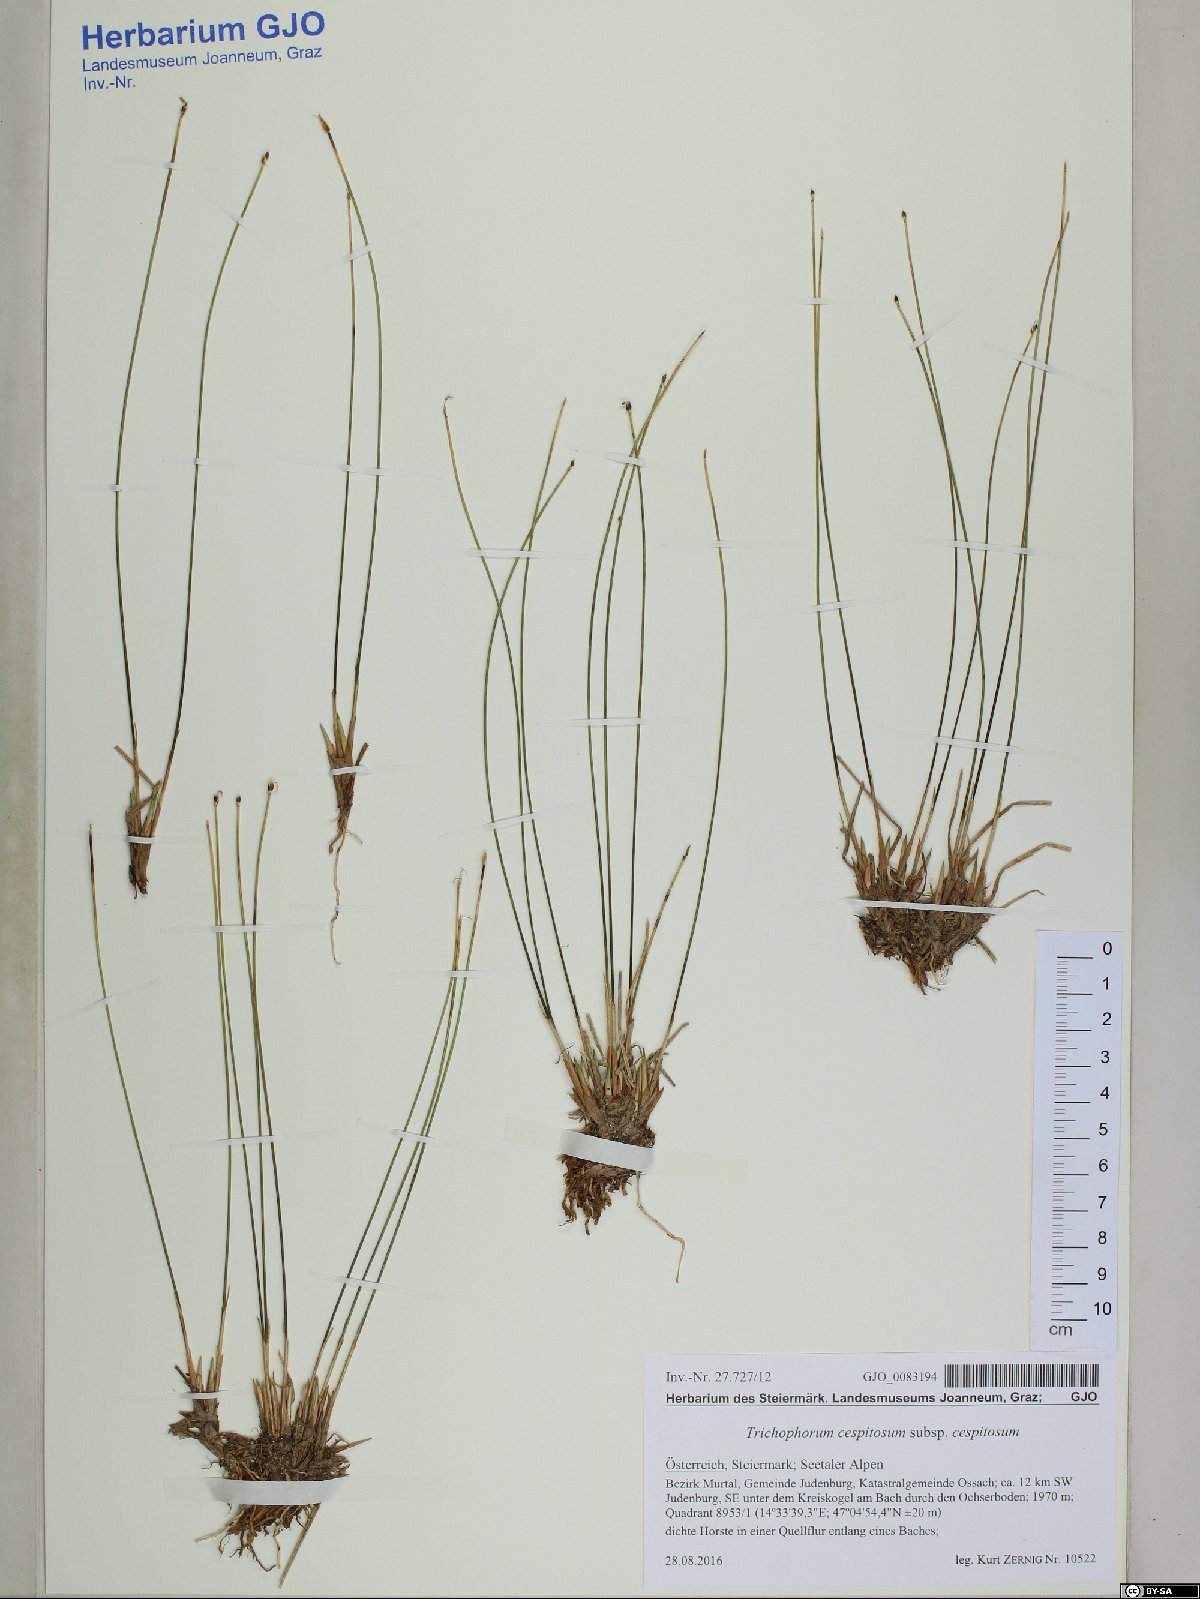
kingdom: Plantae
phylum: Tracheophyta
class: Liliopsida
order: Poales
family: Cyperaceae
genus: Trichophorum
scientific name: Trichophorum cespitosum
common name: Cespitose bulrush
